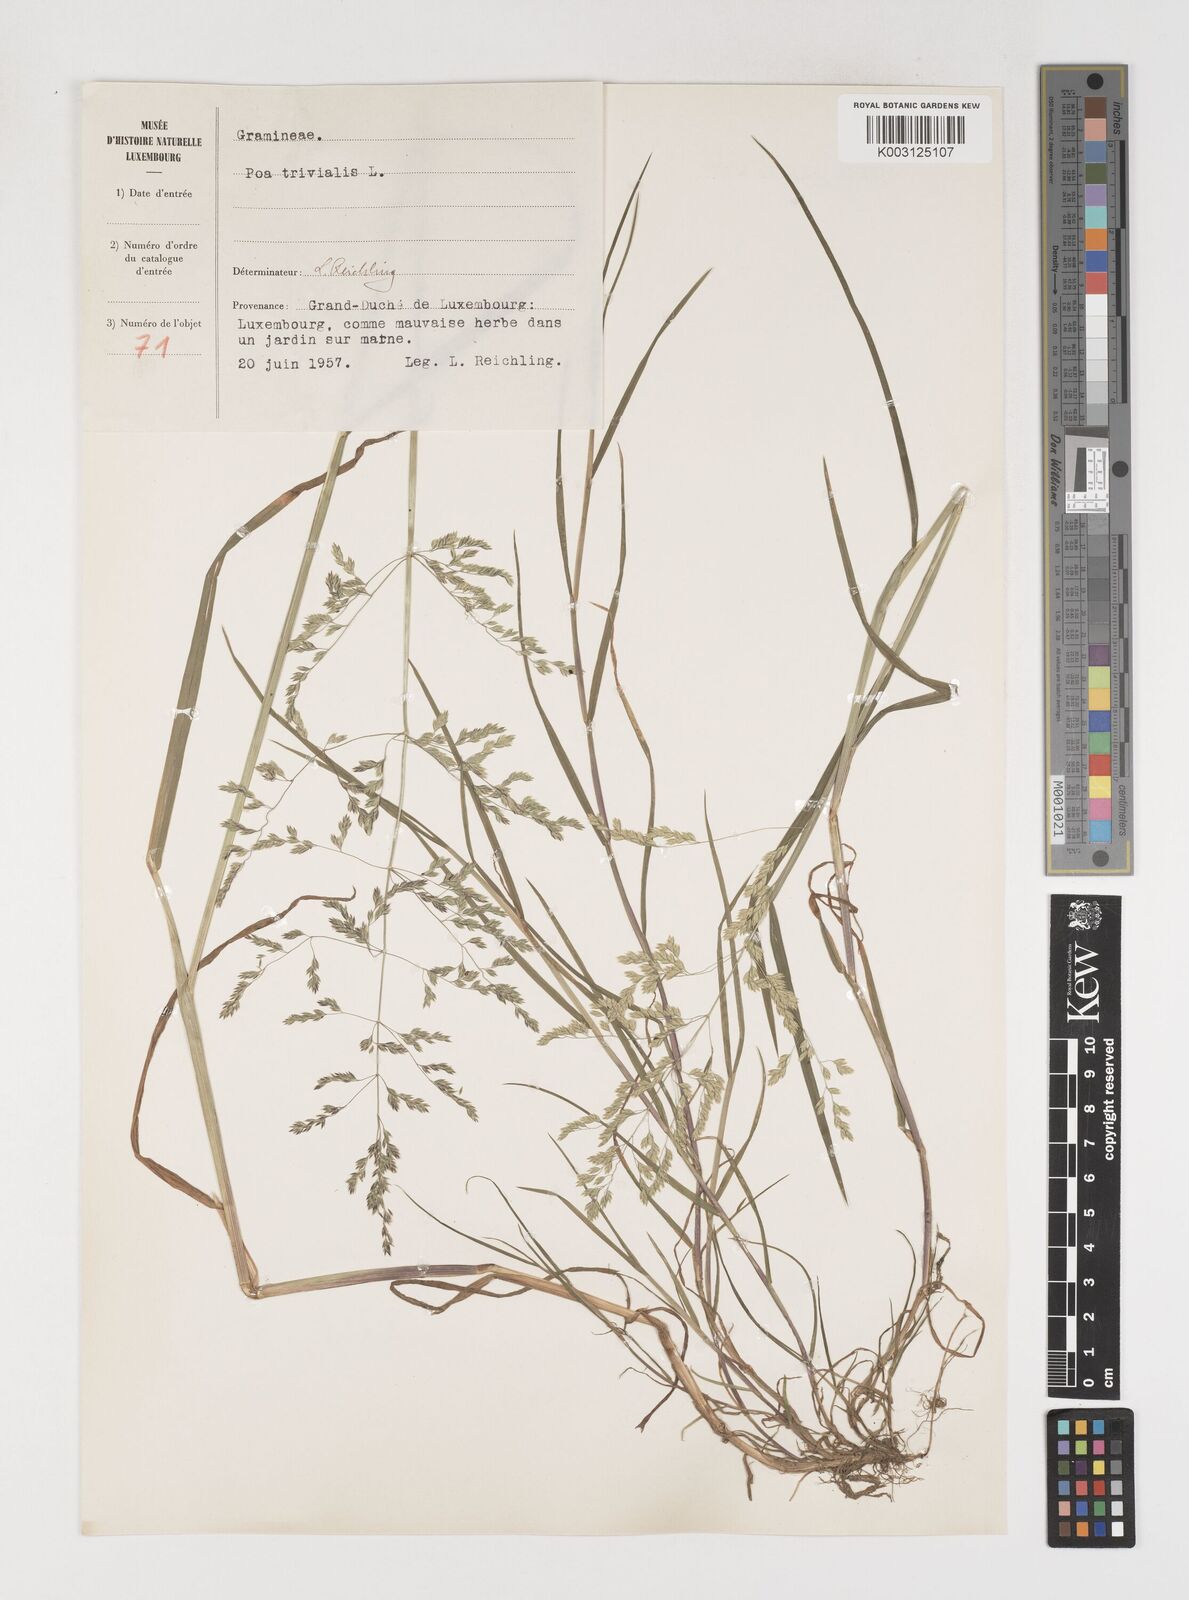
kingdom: Plantae
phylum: Tracheophyta
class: Liliopsida
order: Poales
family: Poaceae
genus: Poa
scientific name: Poa trivialis
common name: Rough bluegrass
